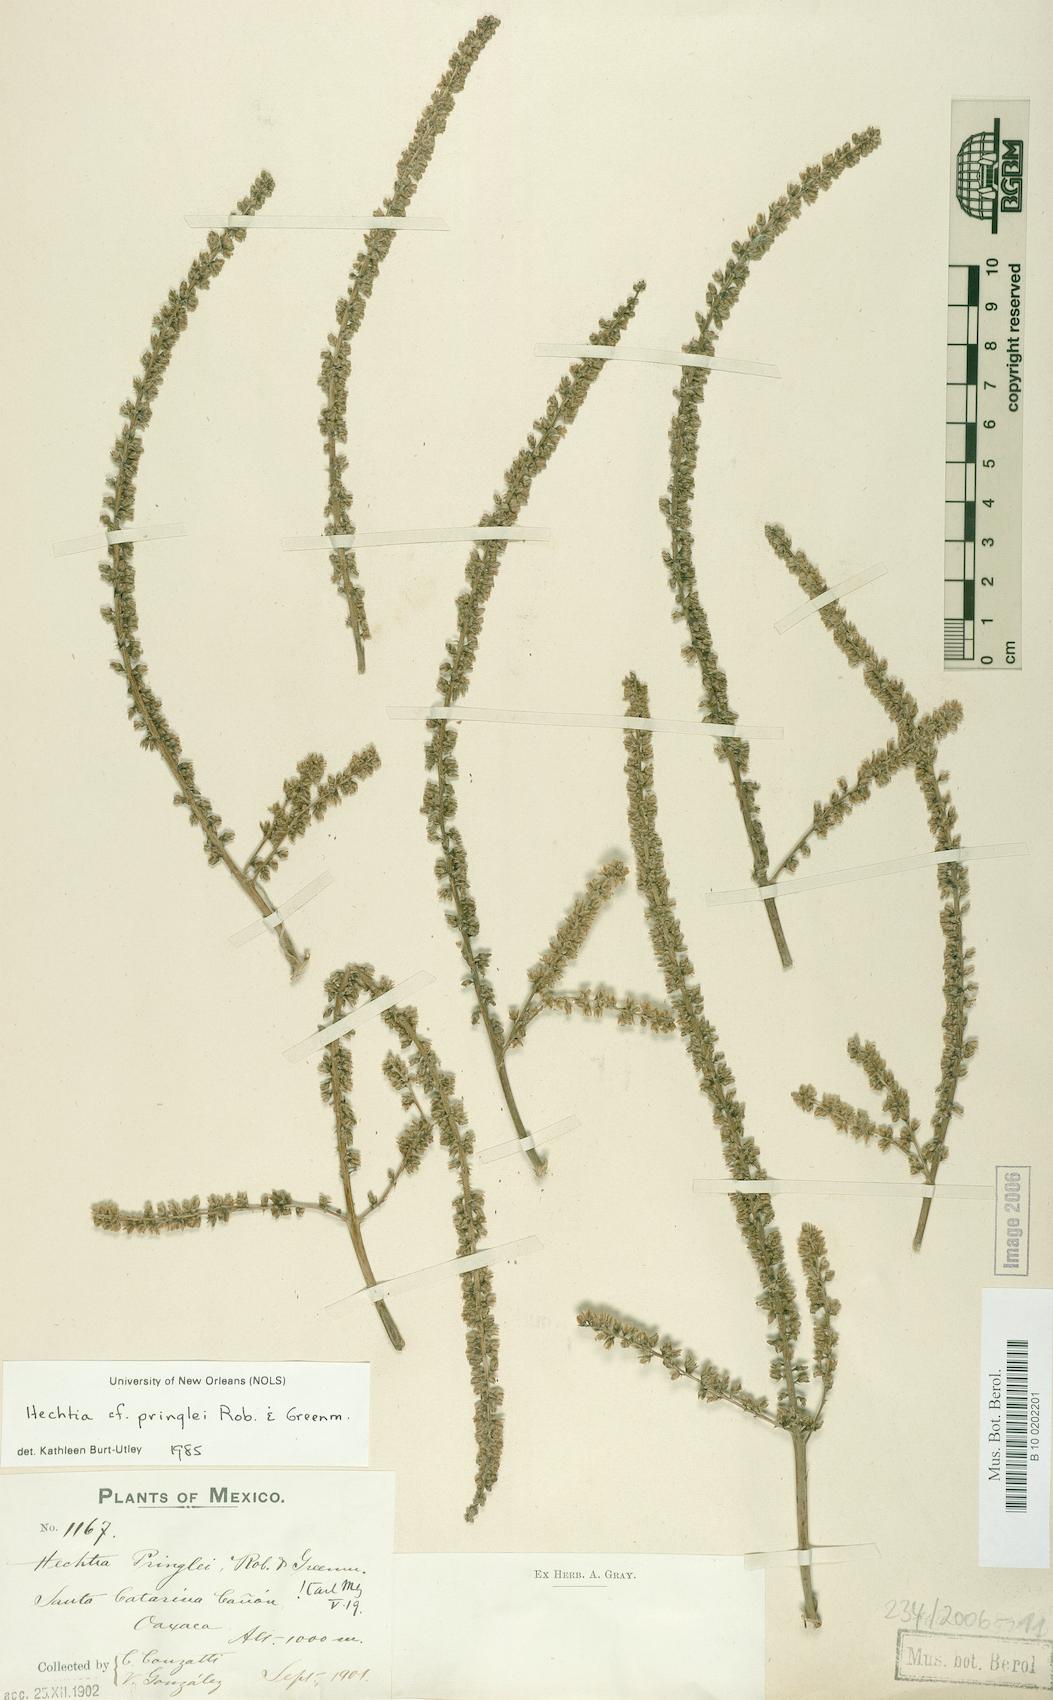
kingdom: Plantae
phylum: Tracheophyta
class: Liliopsida
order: Poales
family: Bromeliaceae
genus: Hechtia
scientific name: Hechtia pringlei
